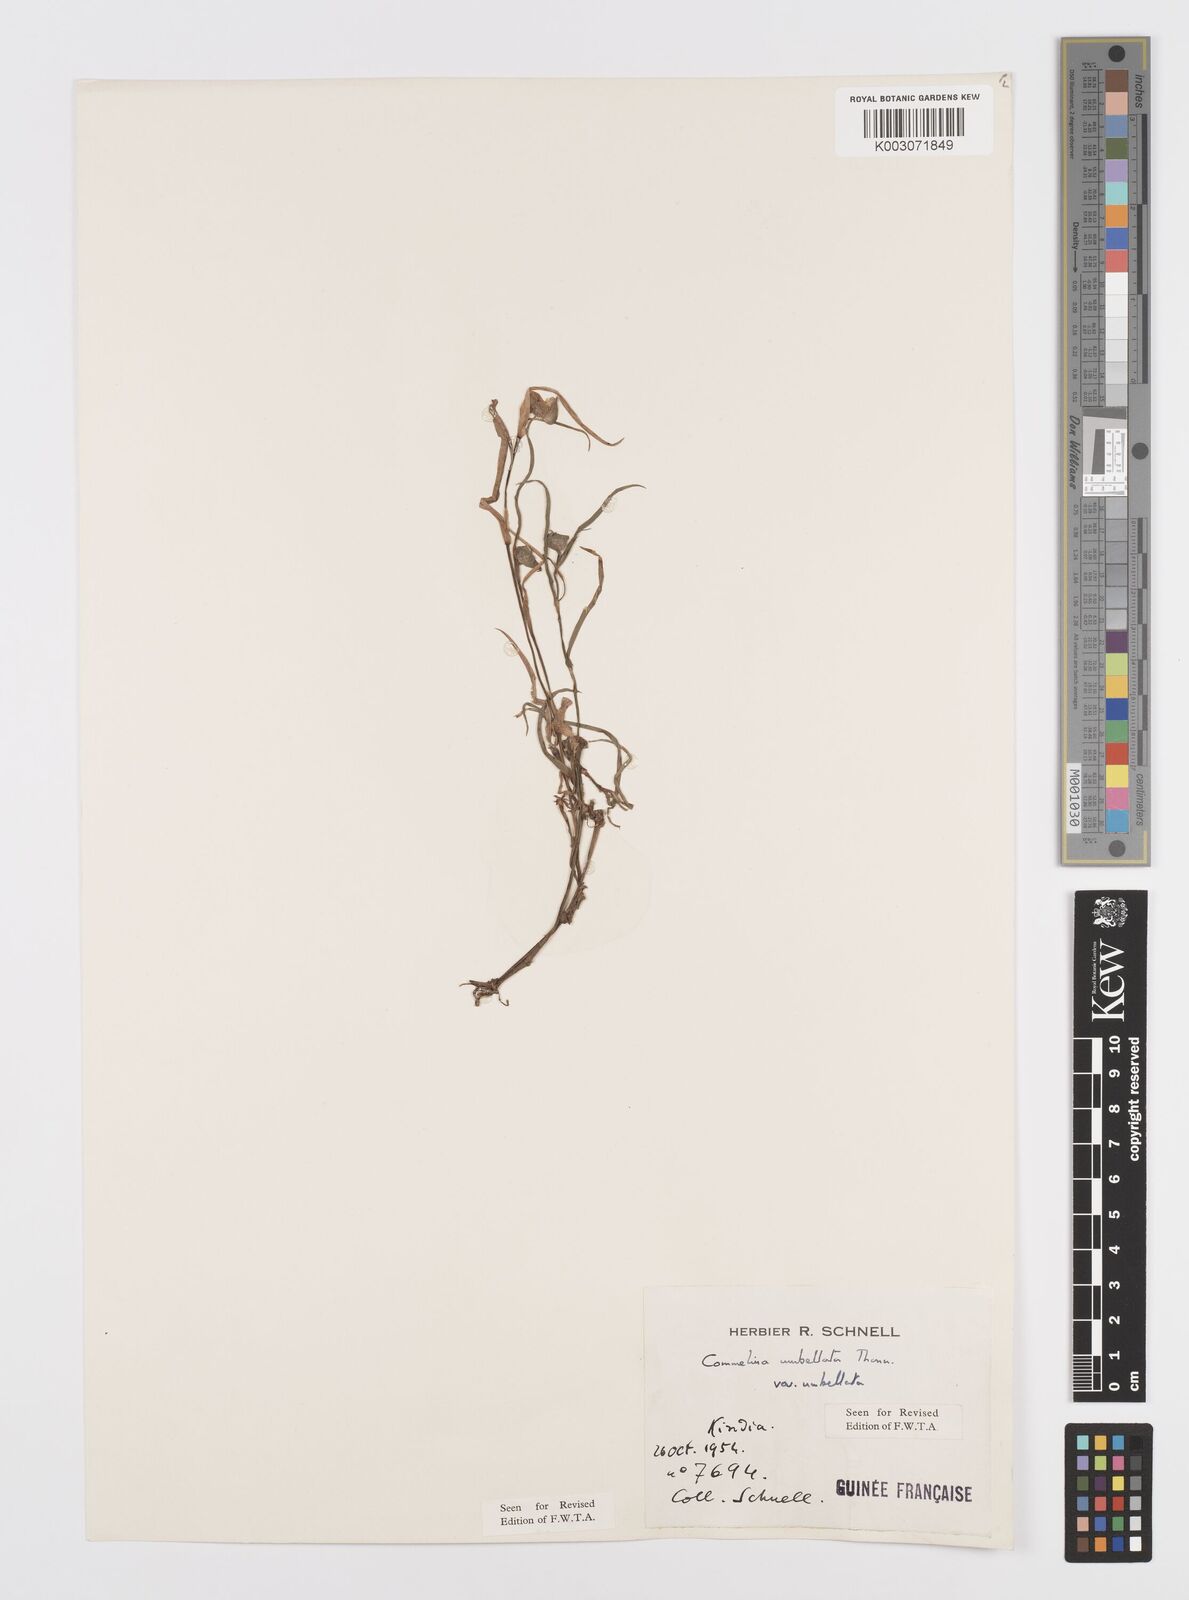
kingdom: Plantae
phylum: Tracheophyta
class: Liliopsida
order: Commelinales
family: Commelinaceae
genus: Commelina
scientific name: Commelina
